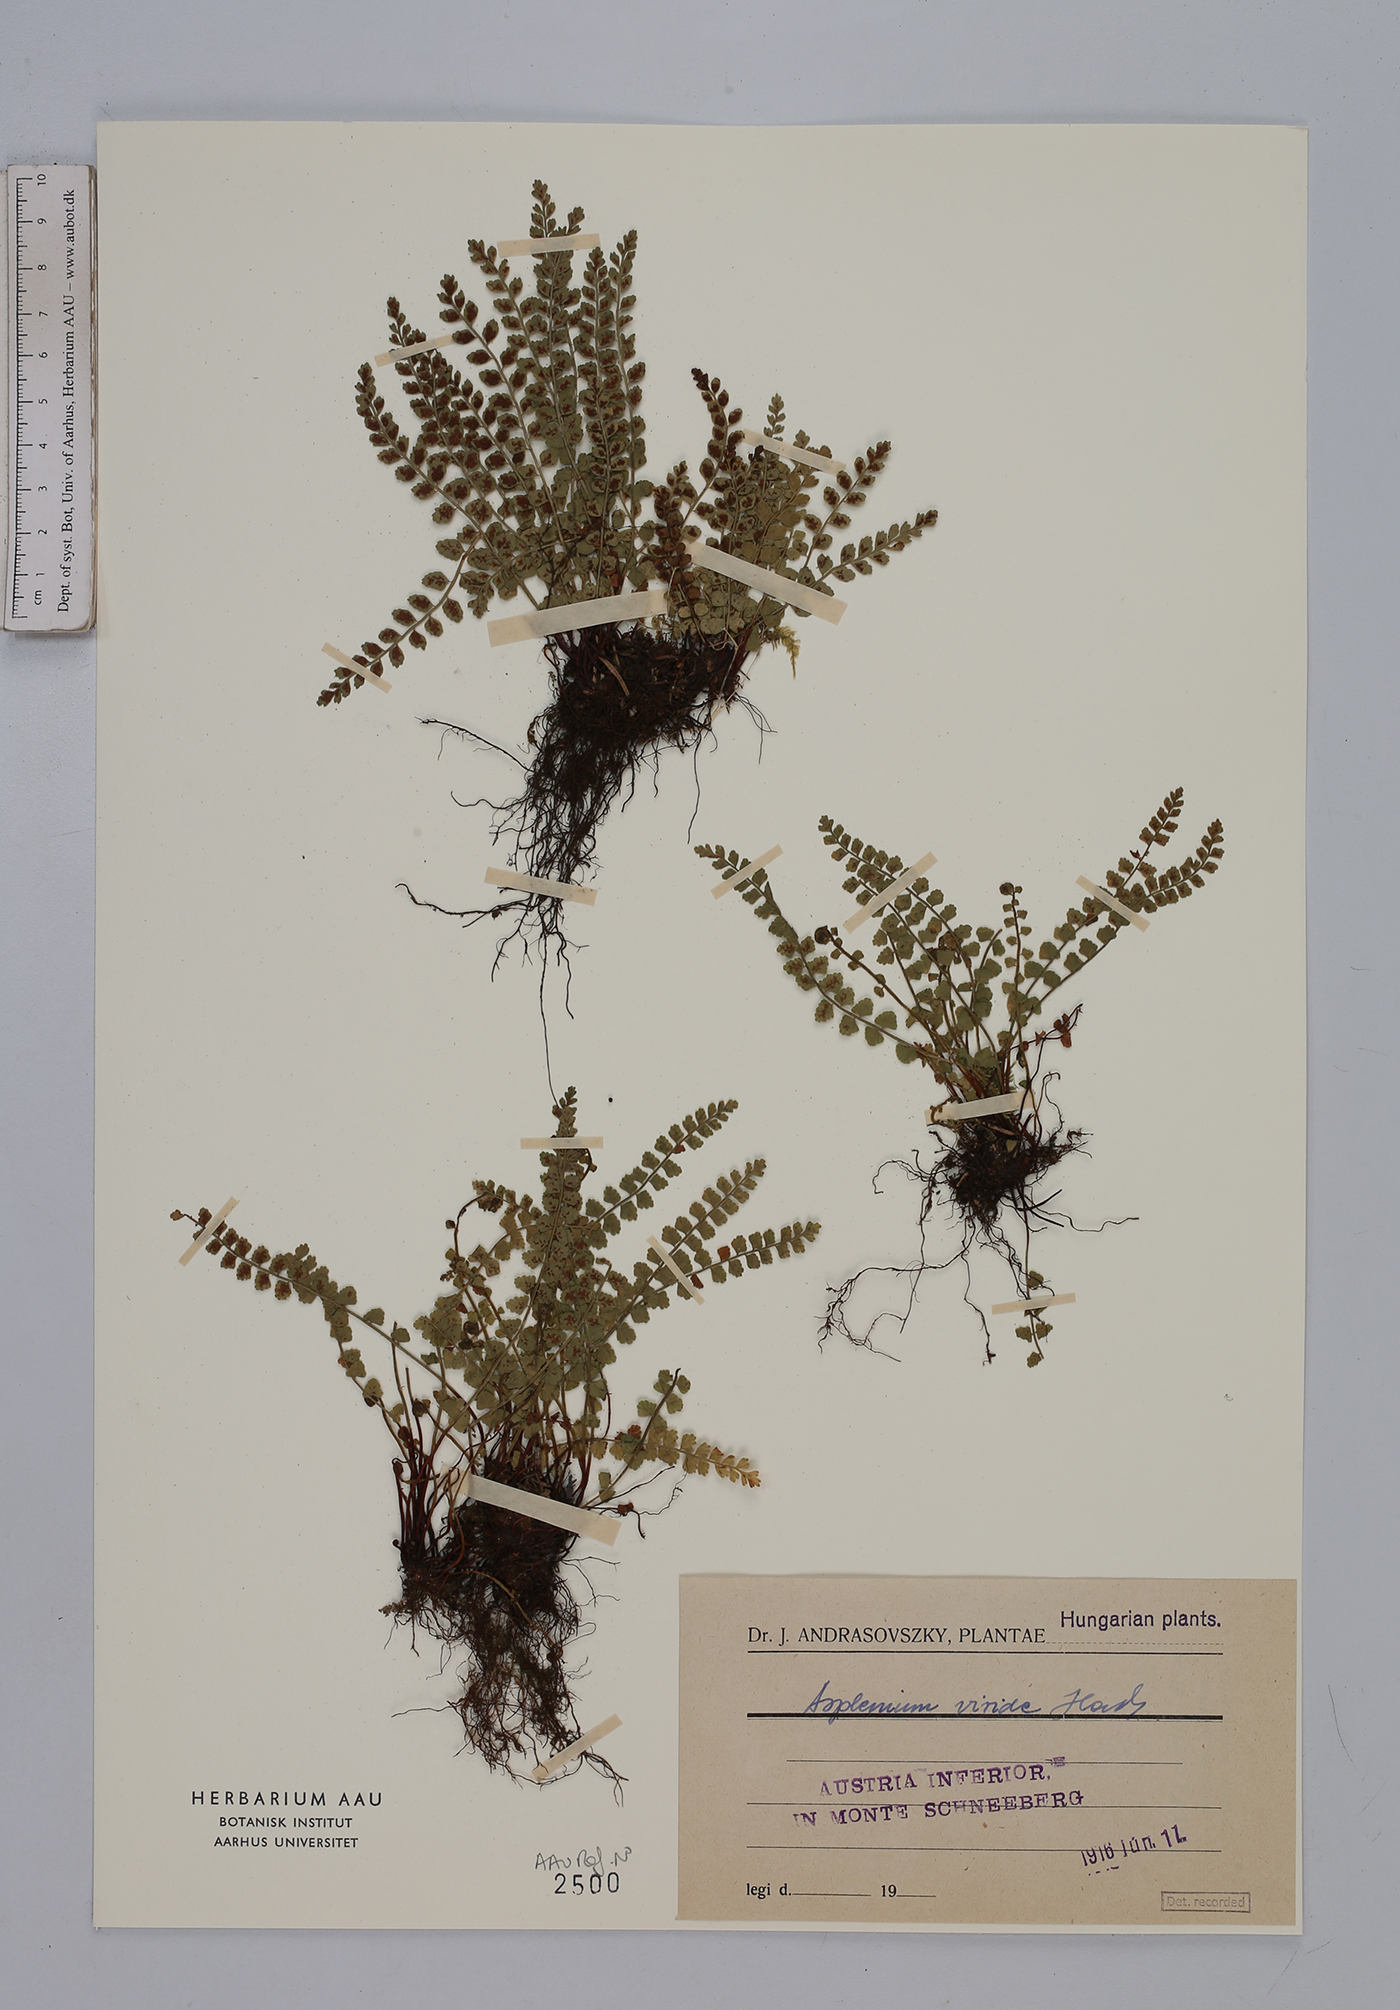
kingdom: Plantae
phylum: Tracheophyta
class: Polypodiopsida
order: Polypodiales
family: Aspleniaceae
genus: Asplenium
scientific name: Asplenium viride
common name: Green spleenwort
